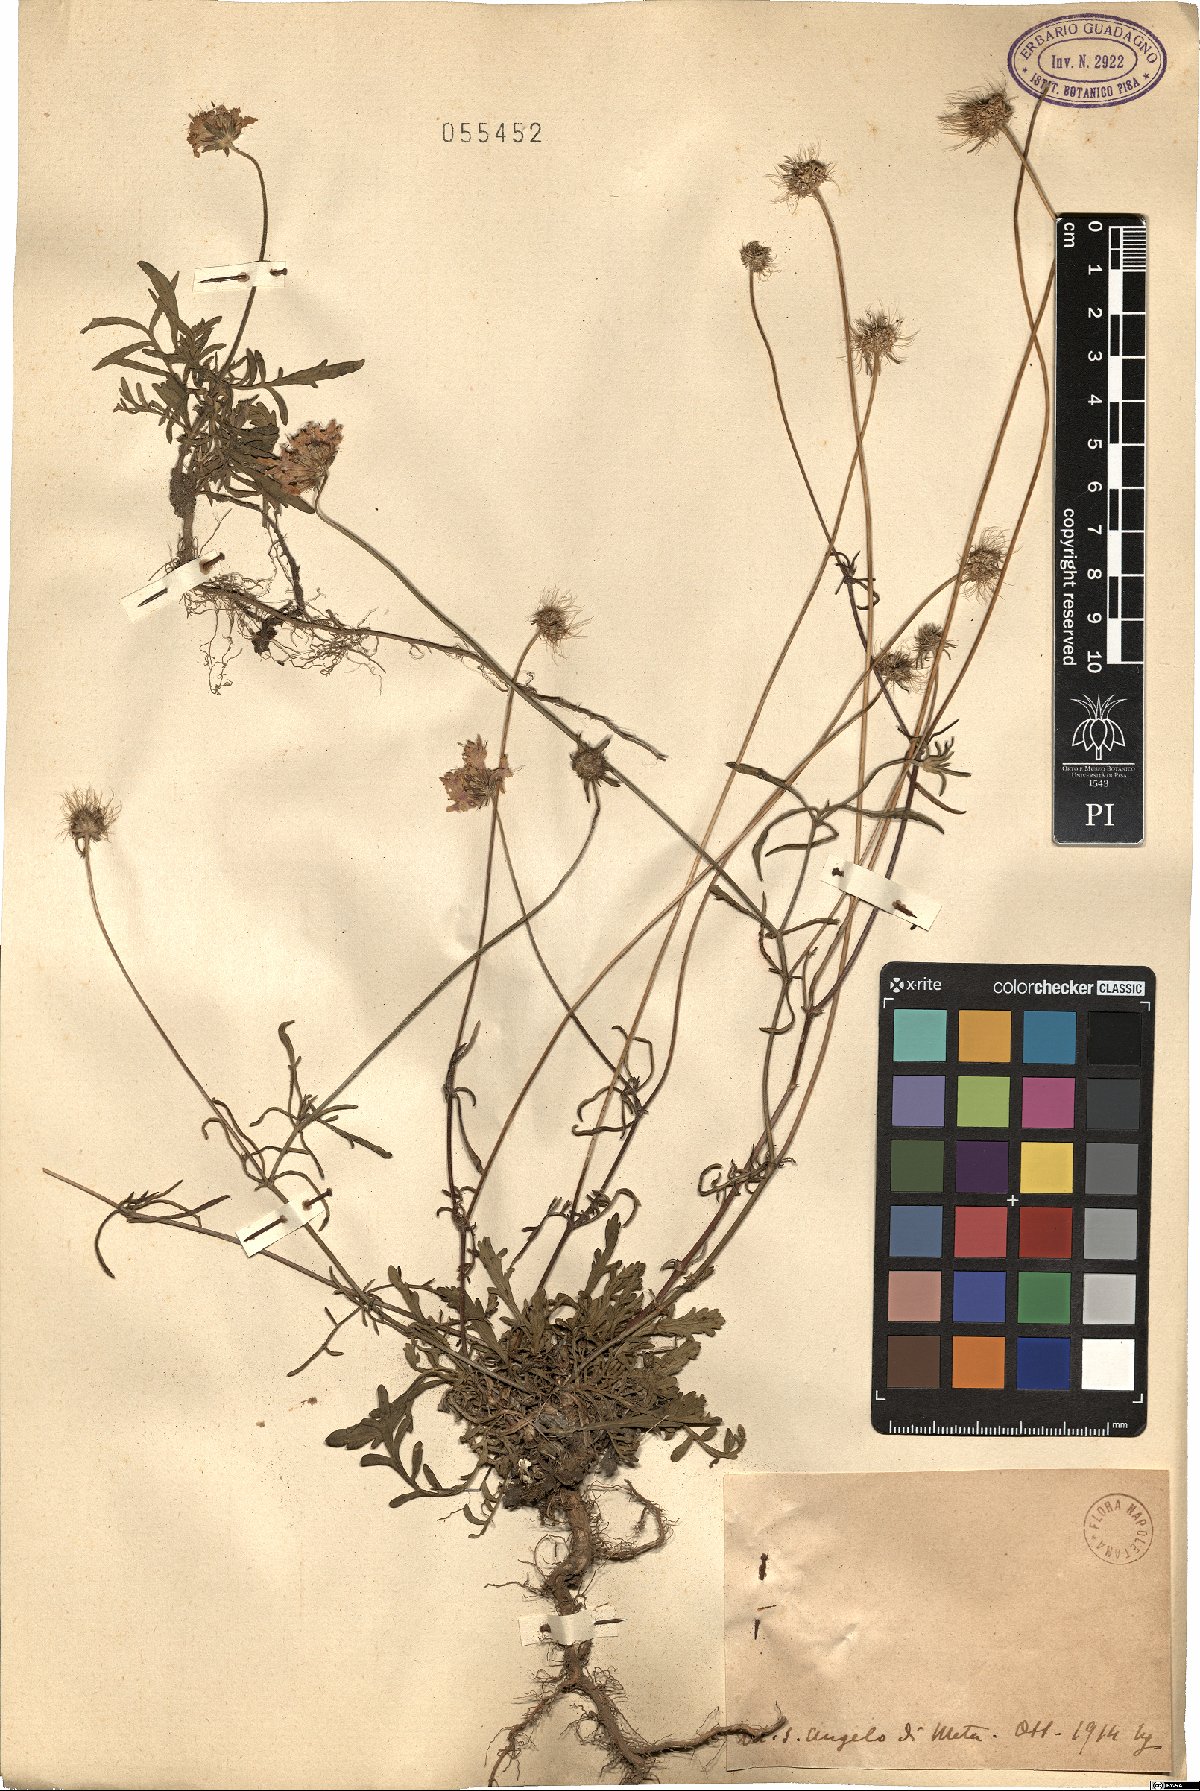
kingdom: Plantae
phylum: Tracheophyta
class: Magnoliopsida
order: Dipsacales
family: Caprifoliaceae
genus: Scabiosa
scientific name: Scabiosa
